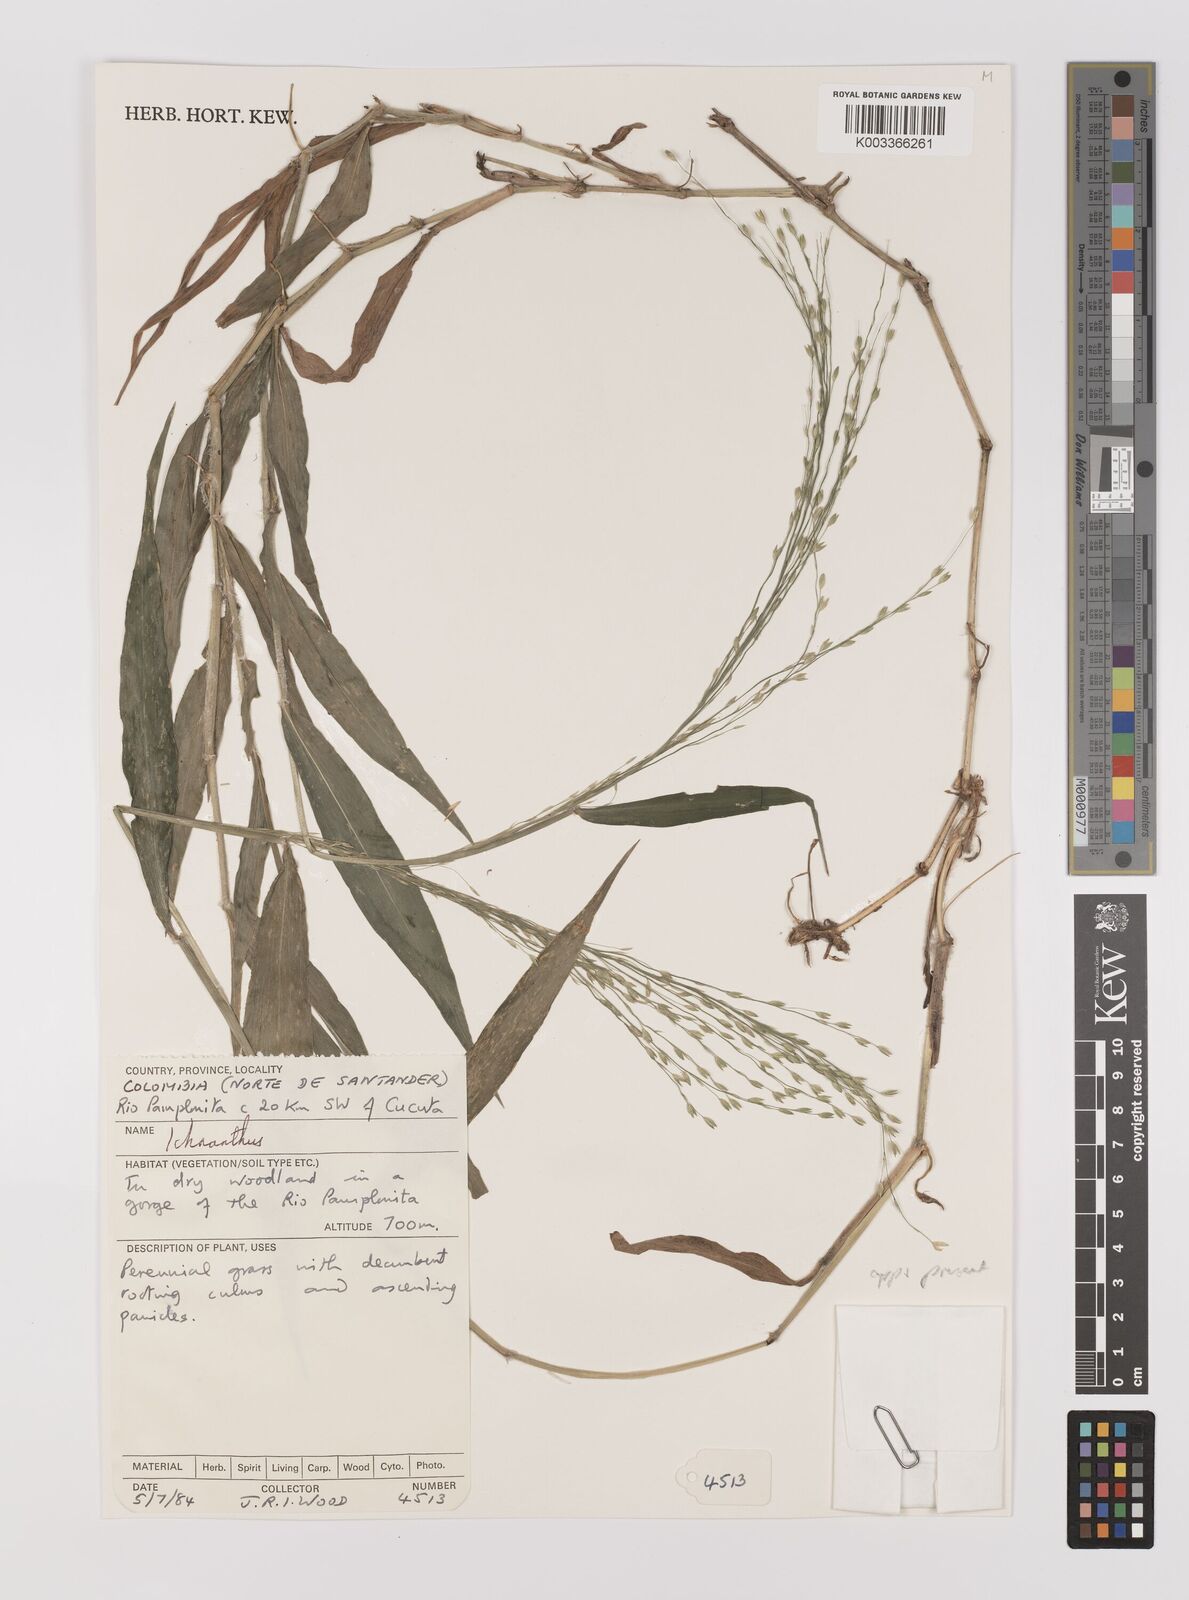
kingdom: Plantae
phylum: Tracheophyta
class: Liliopsida
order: Poales
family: Poaceae
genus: Ichnanthus
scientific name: Ichnanthus dasycoleus
